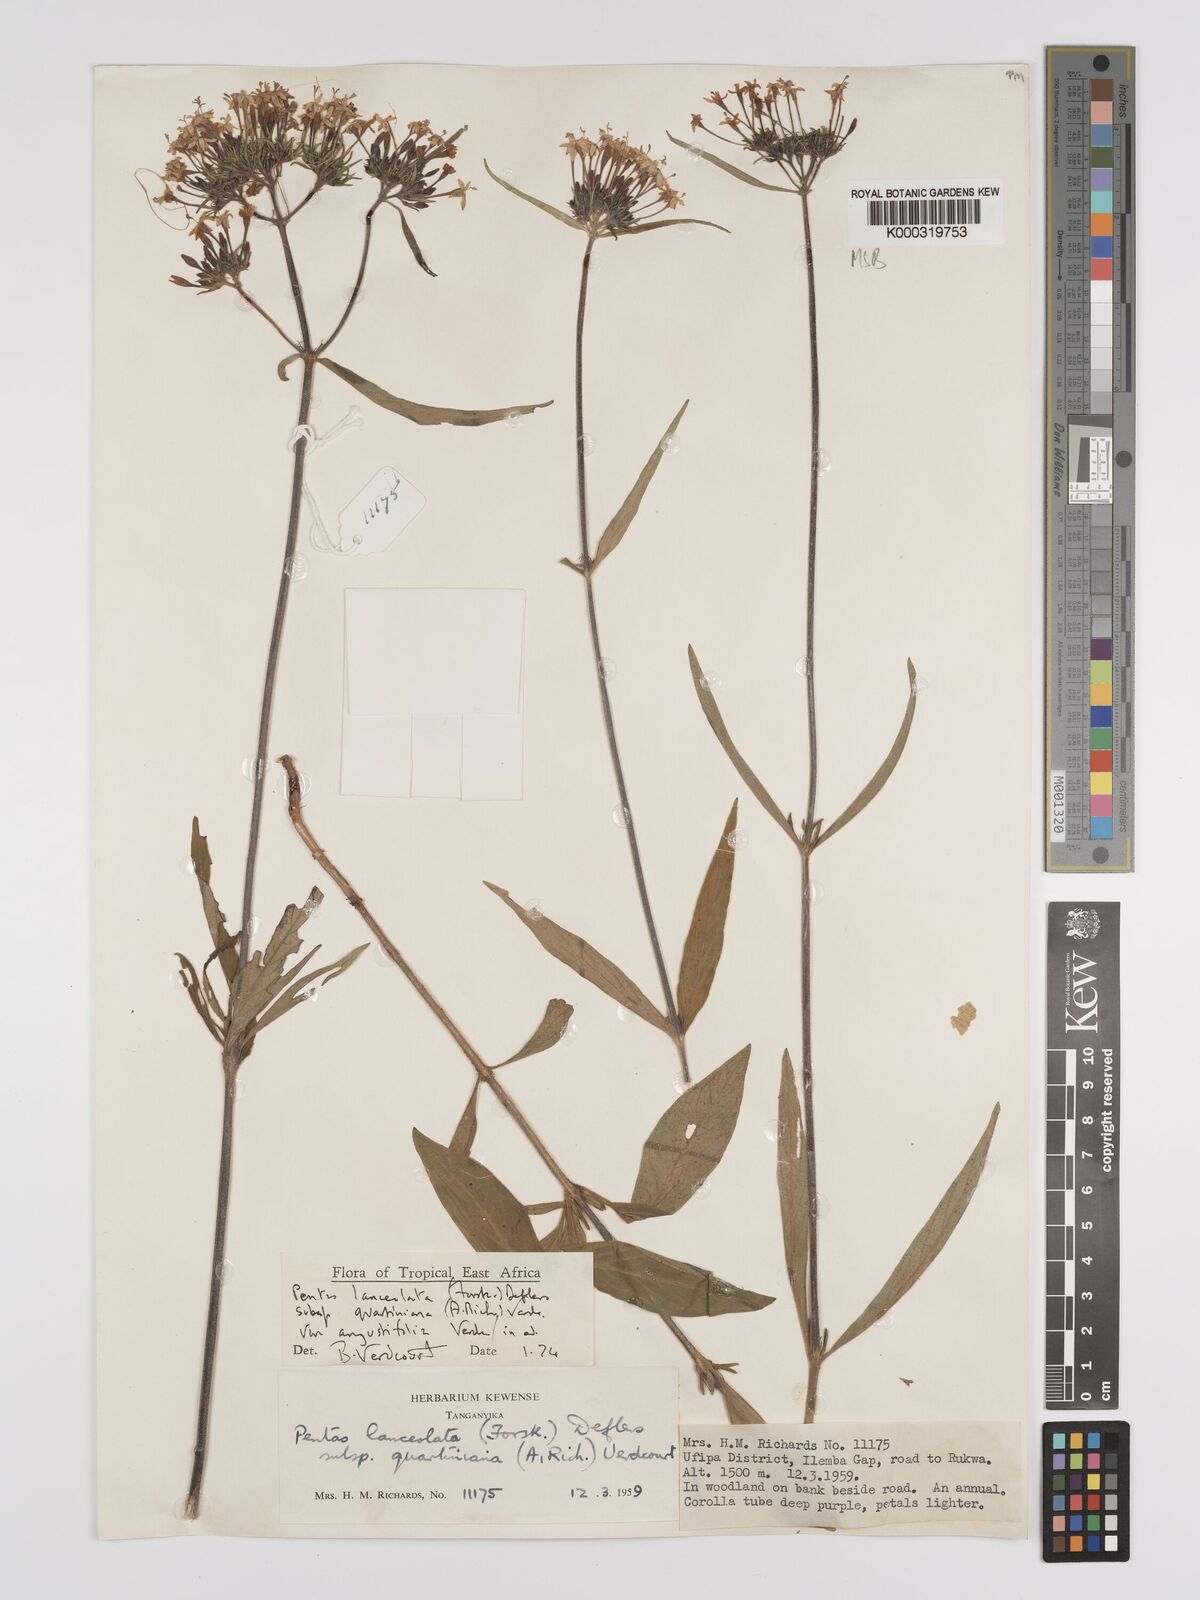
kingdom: Plantae
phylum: Tracheophyta
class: Magnoliopsida
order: Gentianales
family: Rubiaceae
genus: Pentas
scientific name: Pentas lanceolata
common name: Egyptian starcluster
